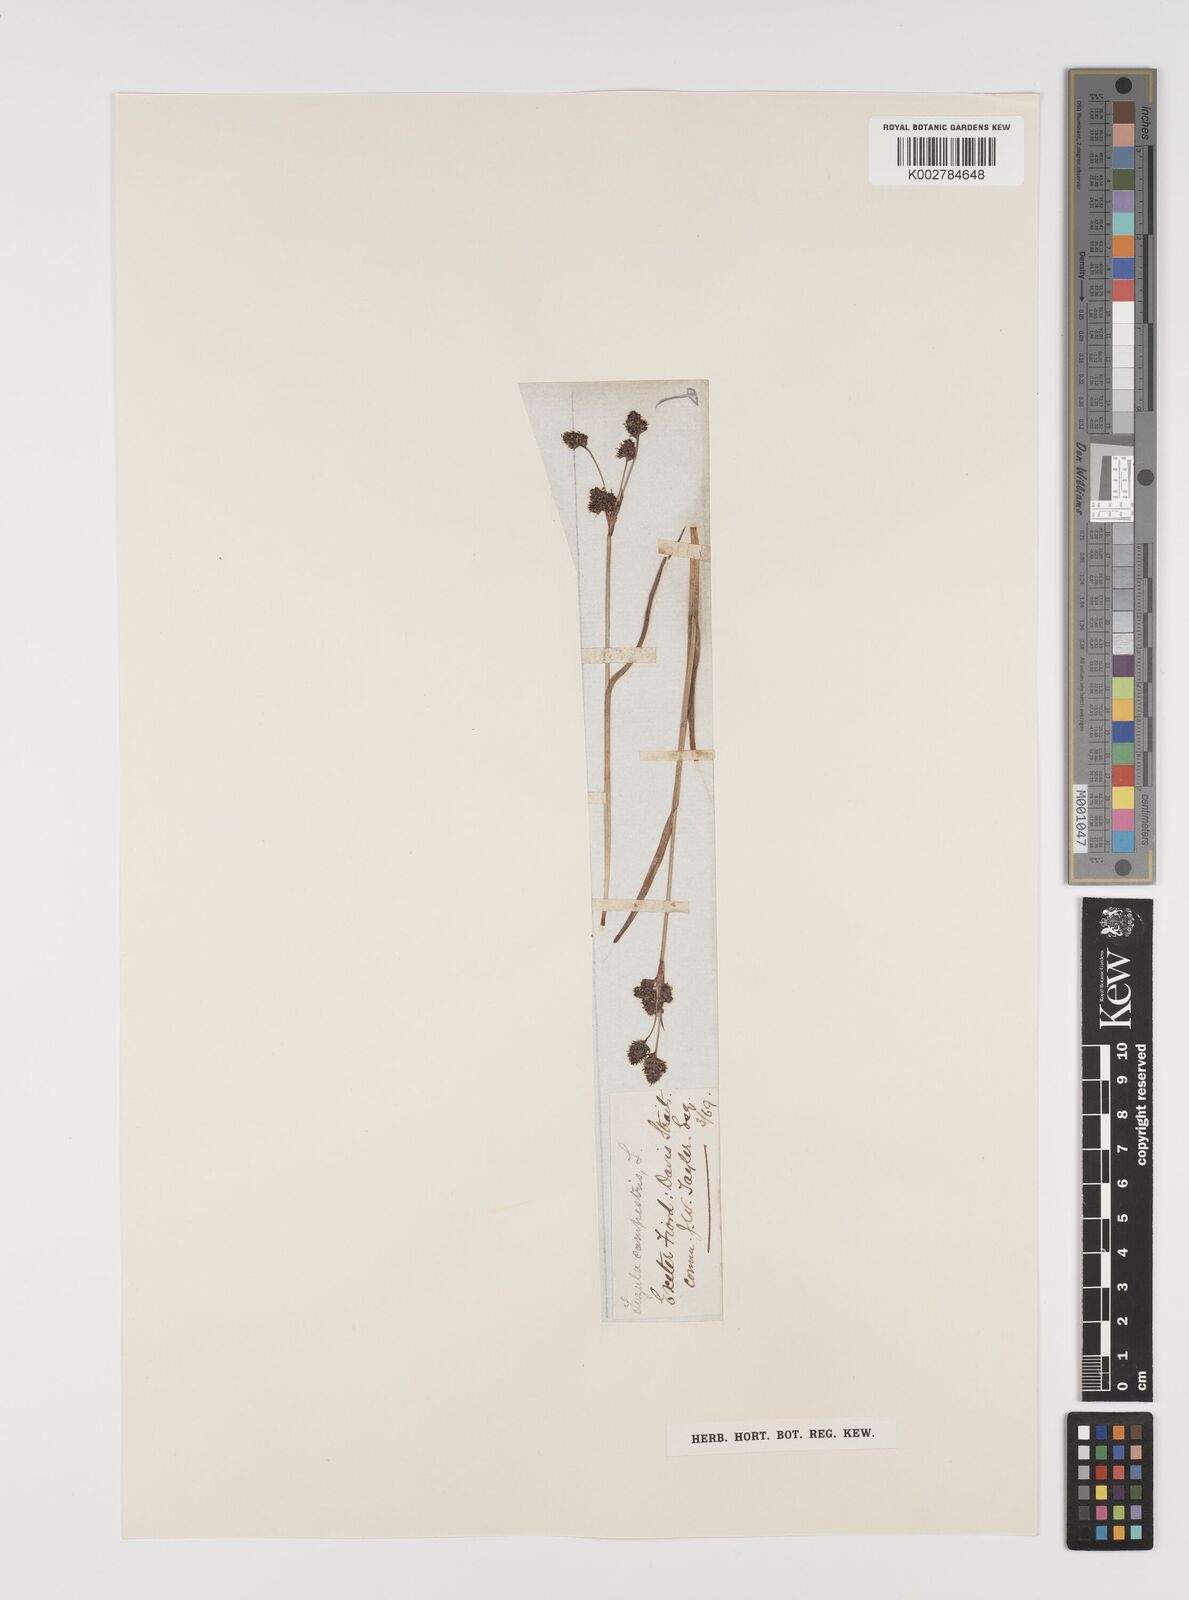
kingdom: Plantae
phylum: Tracheophyta
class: Liliopsida
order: Poales
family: Juncaceae
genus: Luzula
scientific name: Luzula campestris
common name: Field wood-rush
